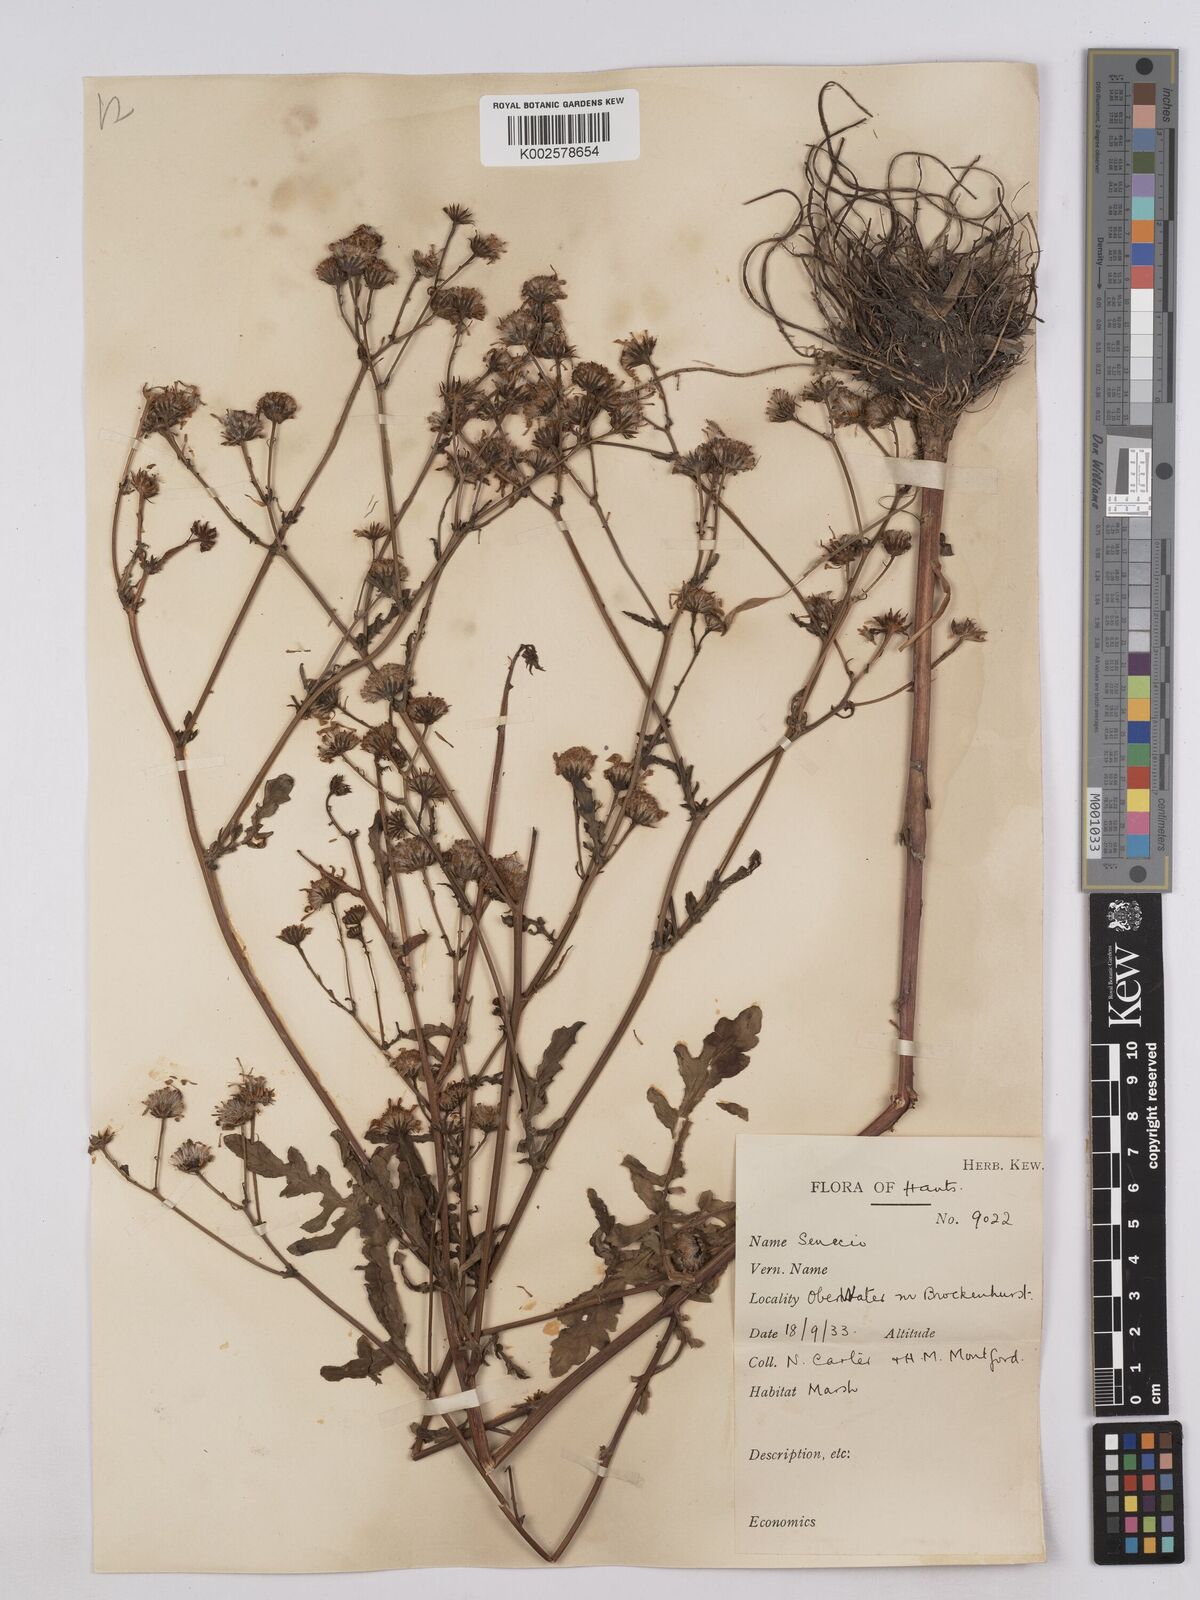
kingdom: Plantae
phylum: Tracheophyta
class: Magnoliopsida
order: Asterales
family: Asteraceae
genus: Jacobaea
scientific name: Jacobaea aquatica
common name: Water ragwort
